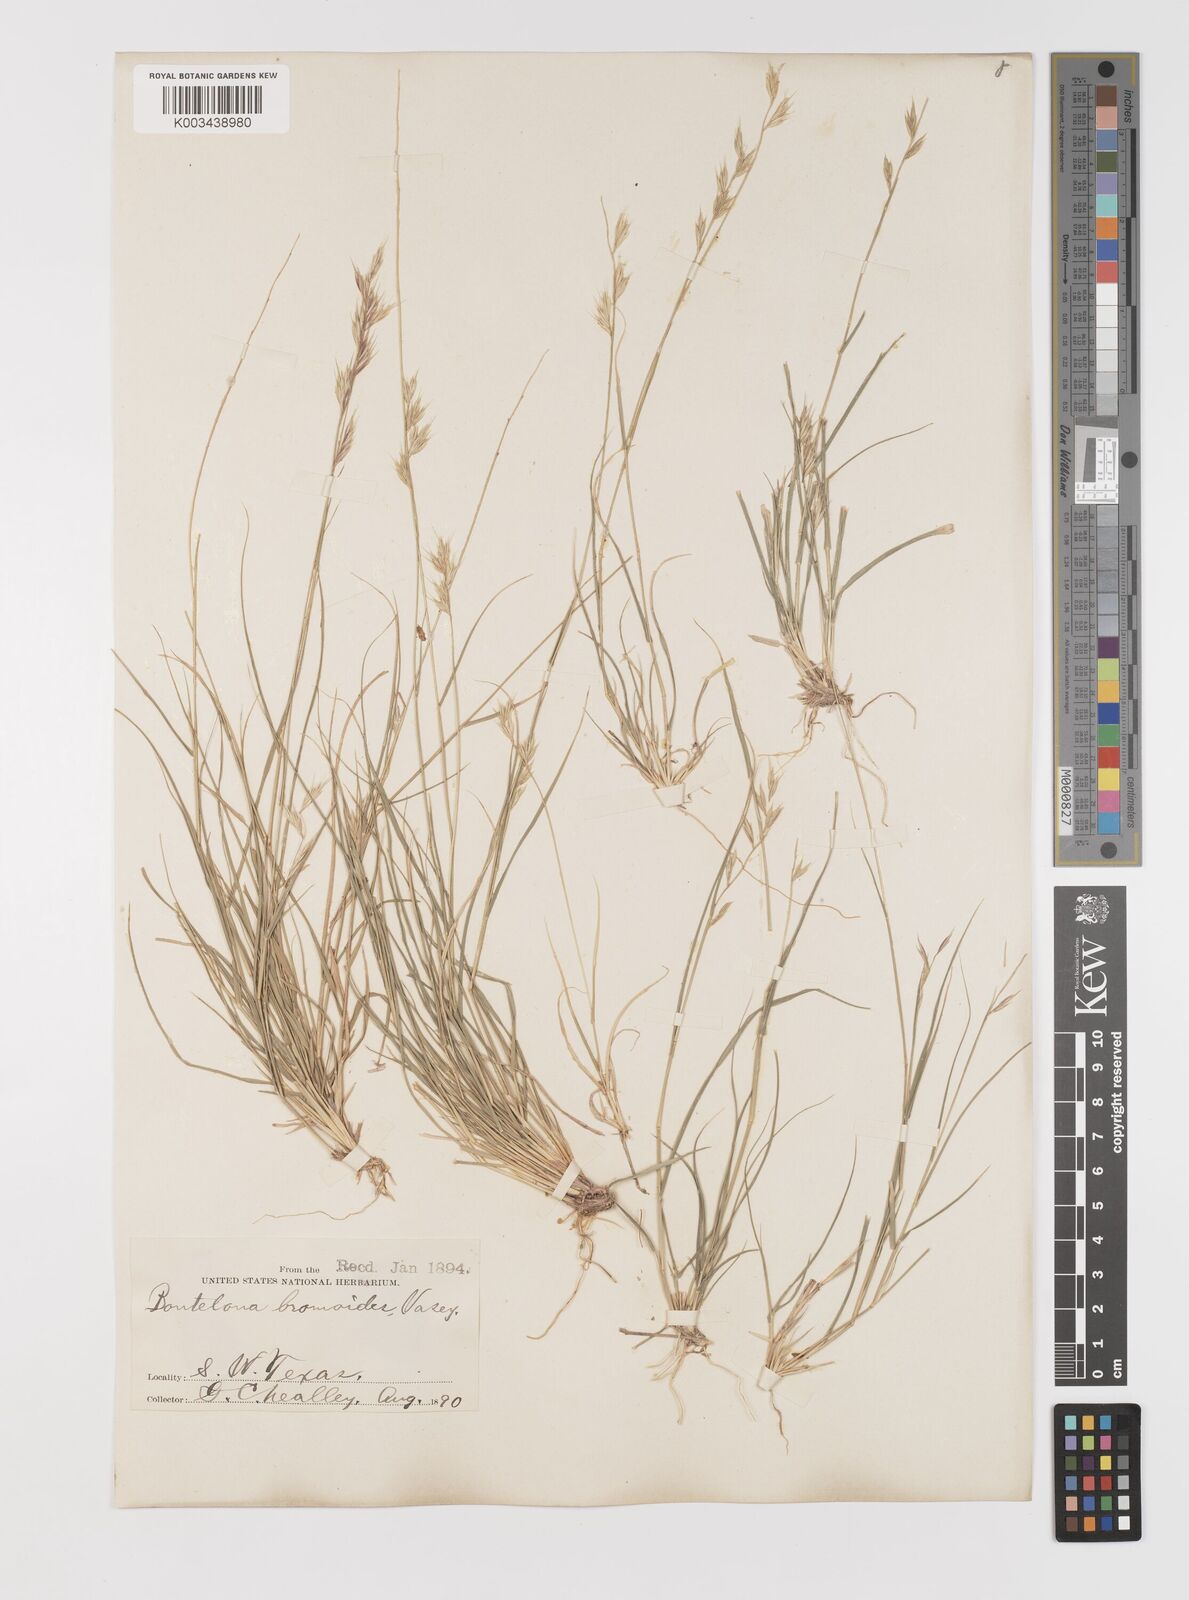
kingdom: Plantae
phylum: Tracheophyta
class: Liliopsida
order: Poales
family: Poaceae
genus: Bouteloua
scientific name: Bouteloua repens
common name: Slender grama
